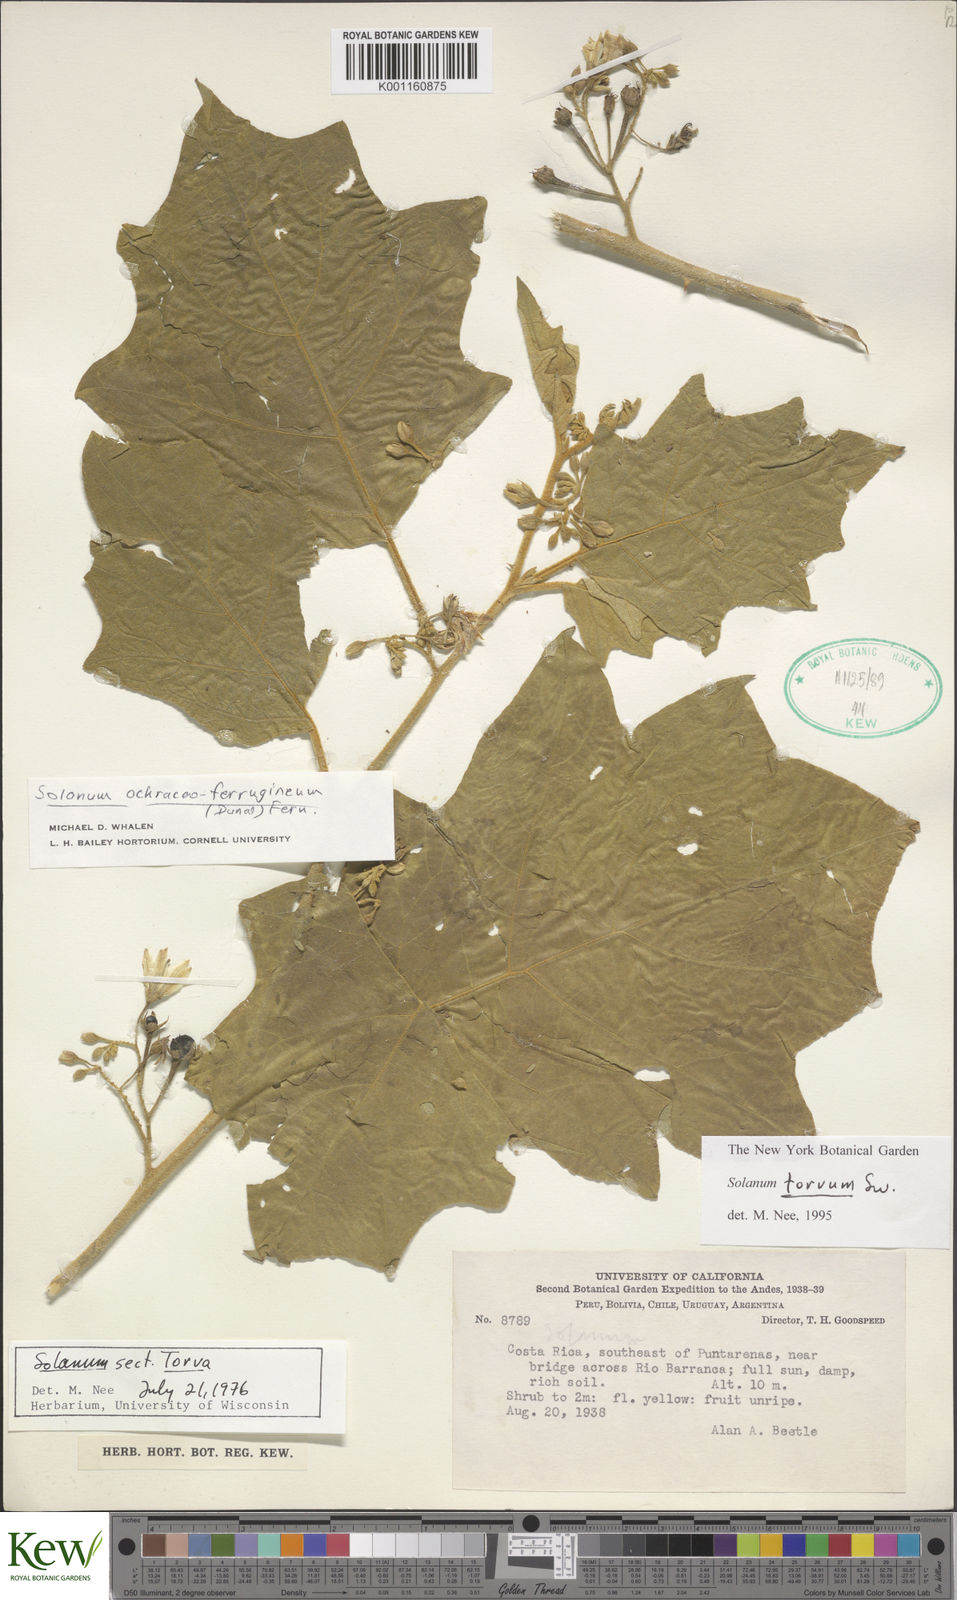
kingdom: Plantae
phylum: Tracheophyta
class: Magnoliopsida
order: Solanales
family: Solanaceae
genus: Solanum
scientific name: Solanum torvum
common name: Turkey berry
